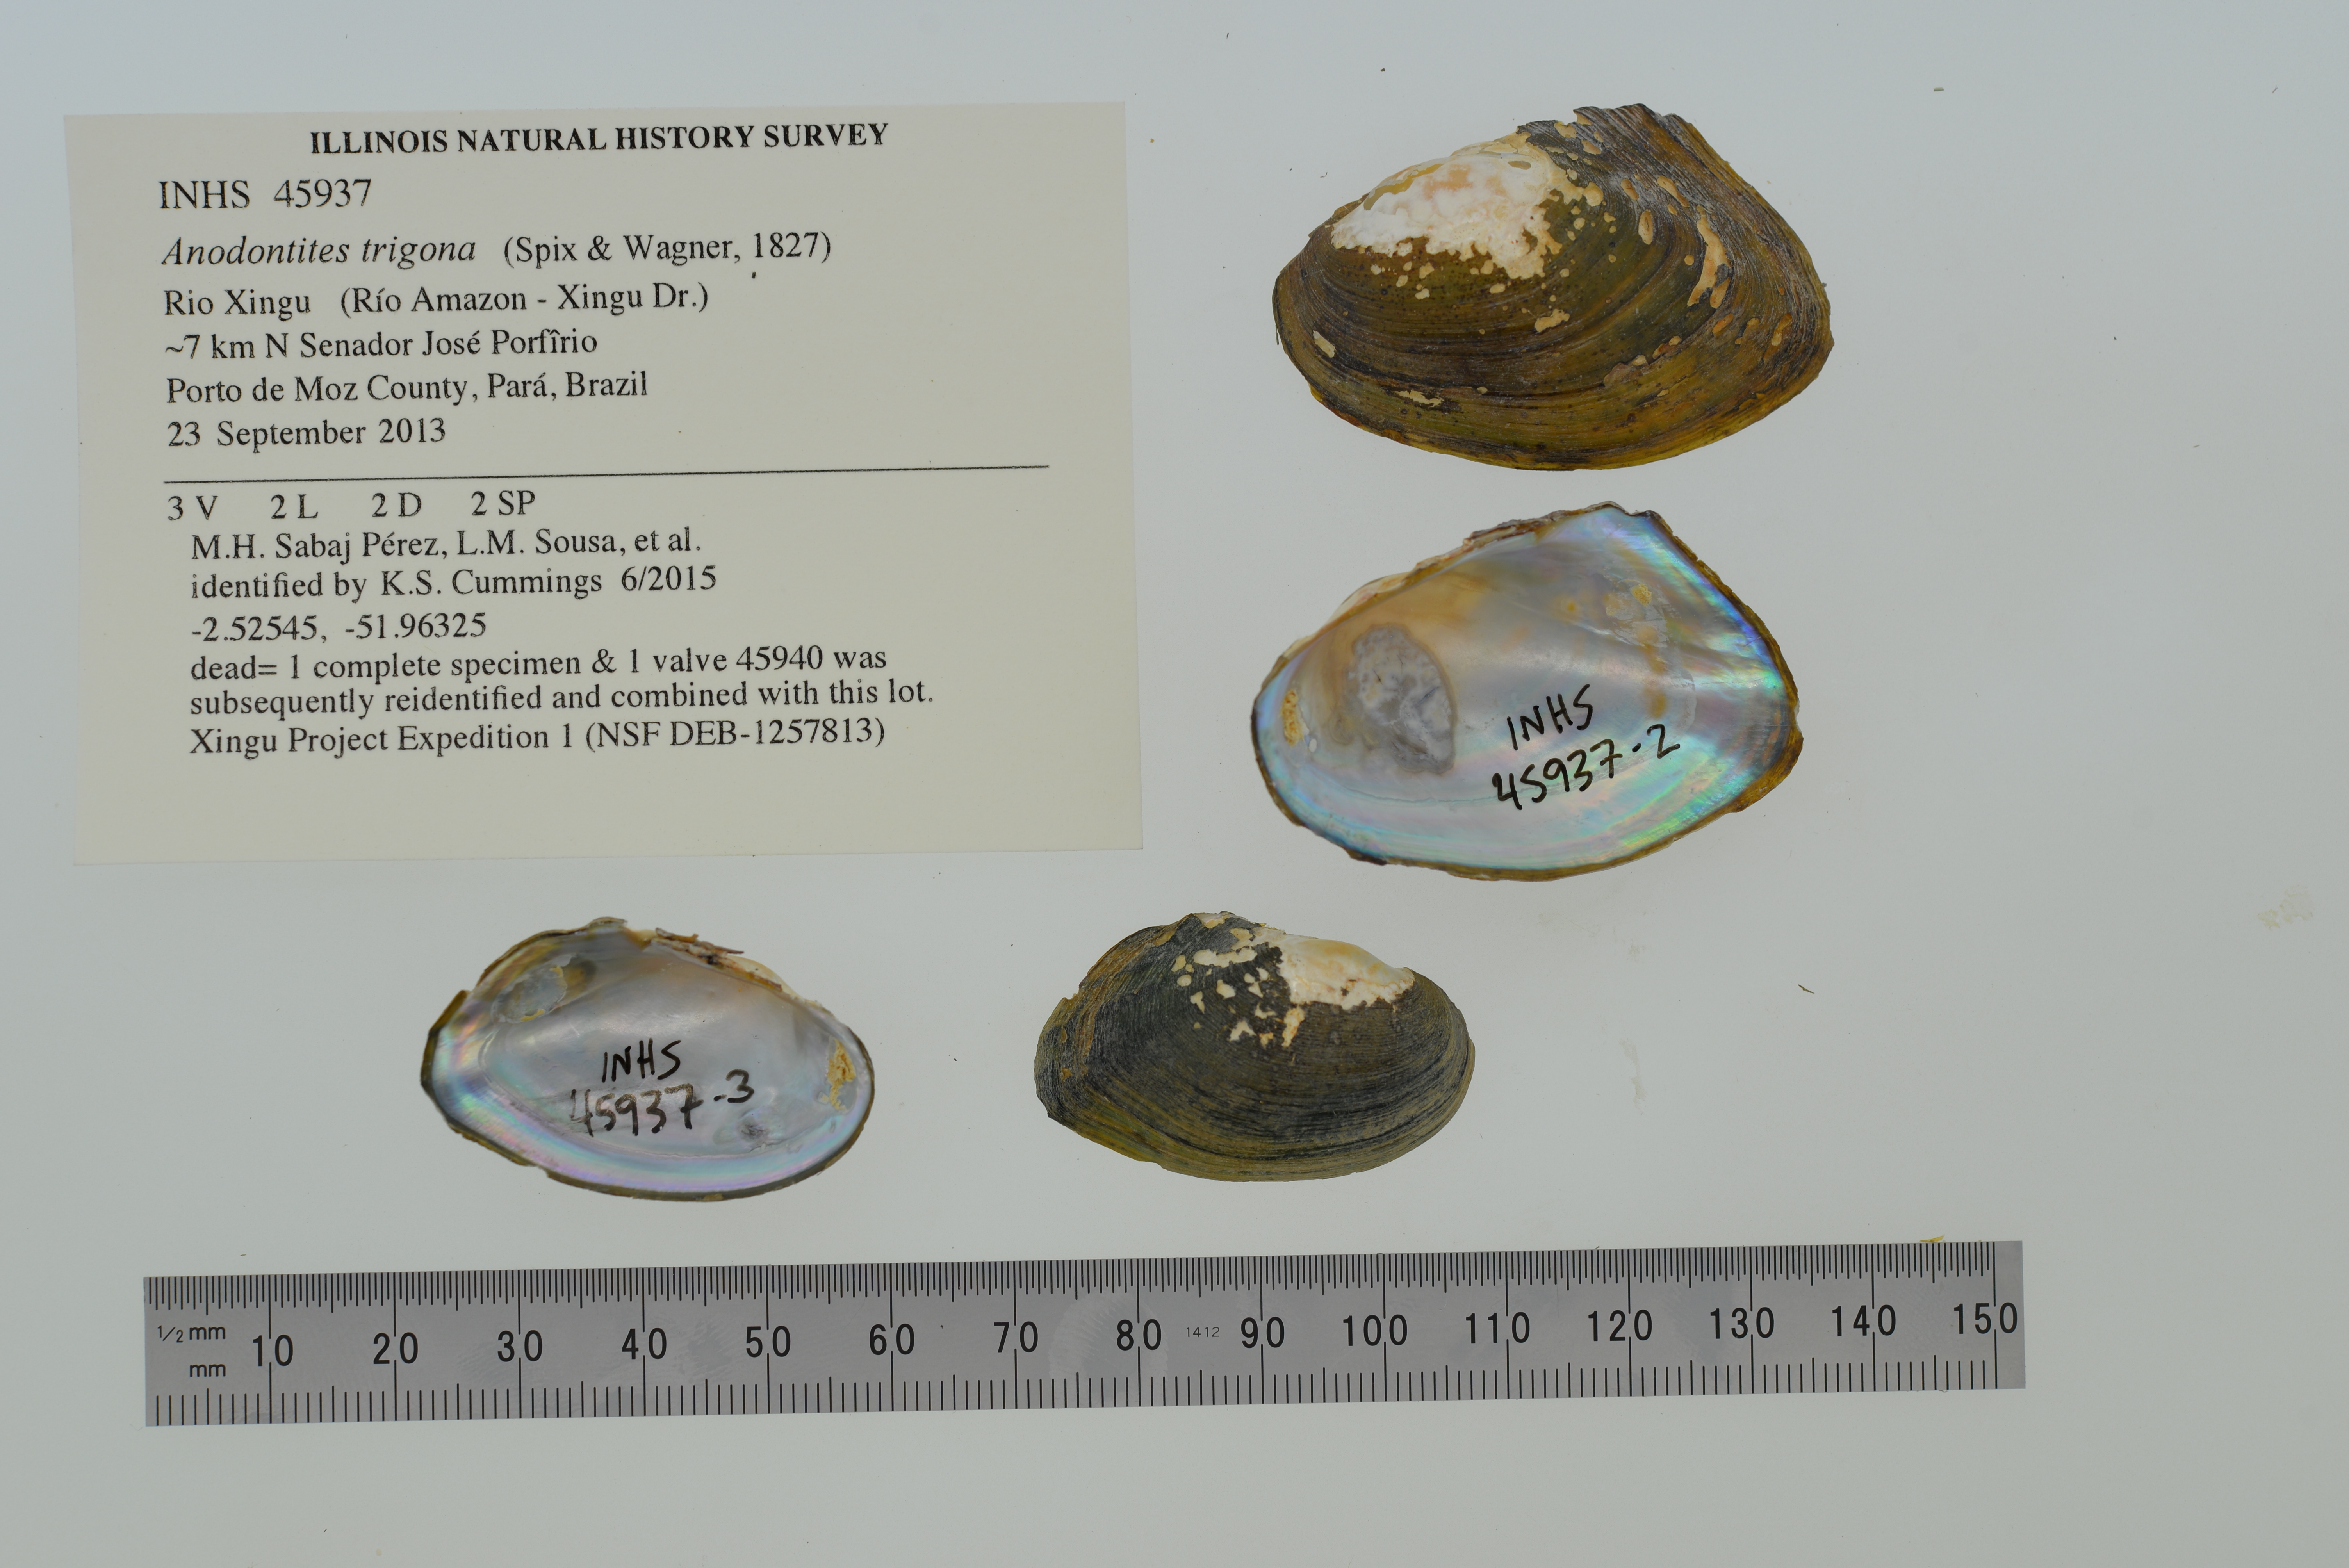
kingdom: Animalia
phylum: Mollusca
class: Bivalvia
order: Unionida
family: Mycetopodidae
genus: Anodontites
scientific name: Anodontites trigona
